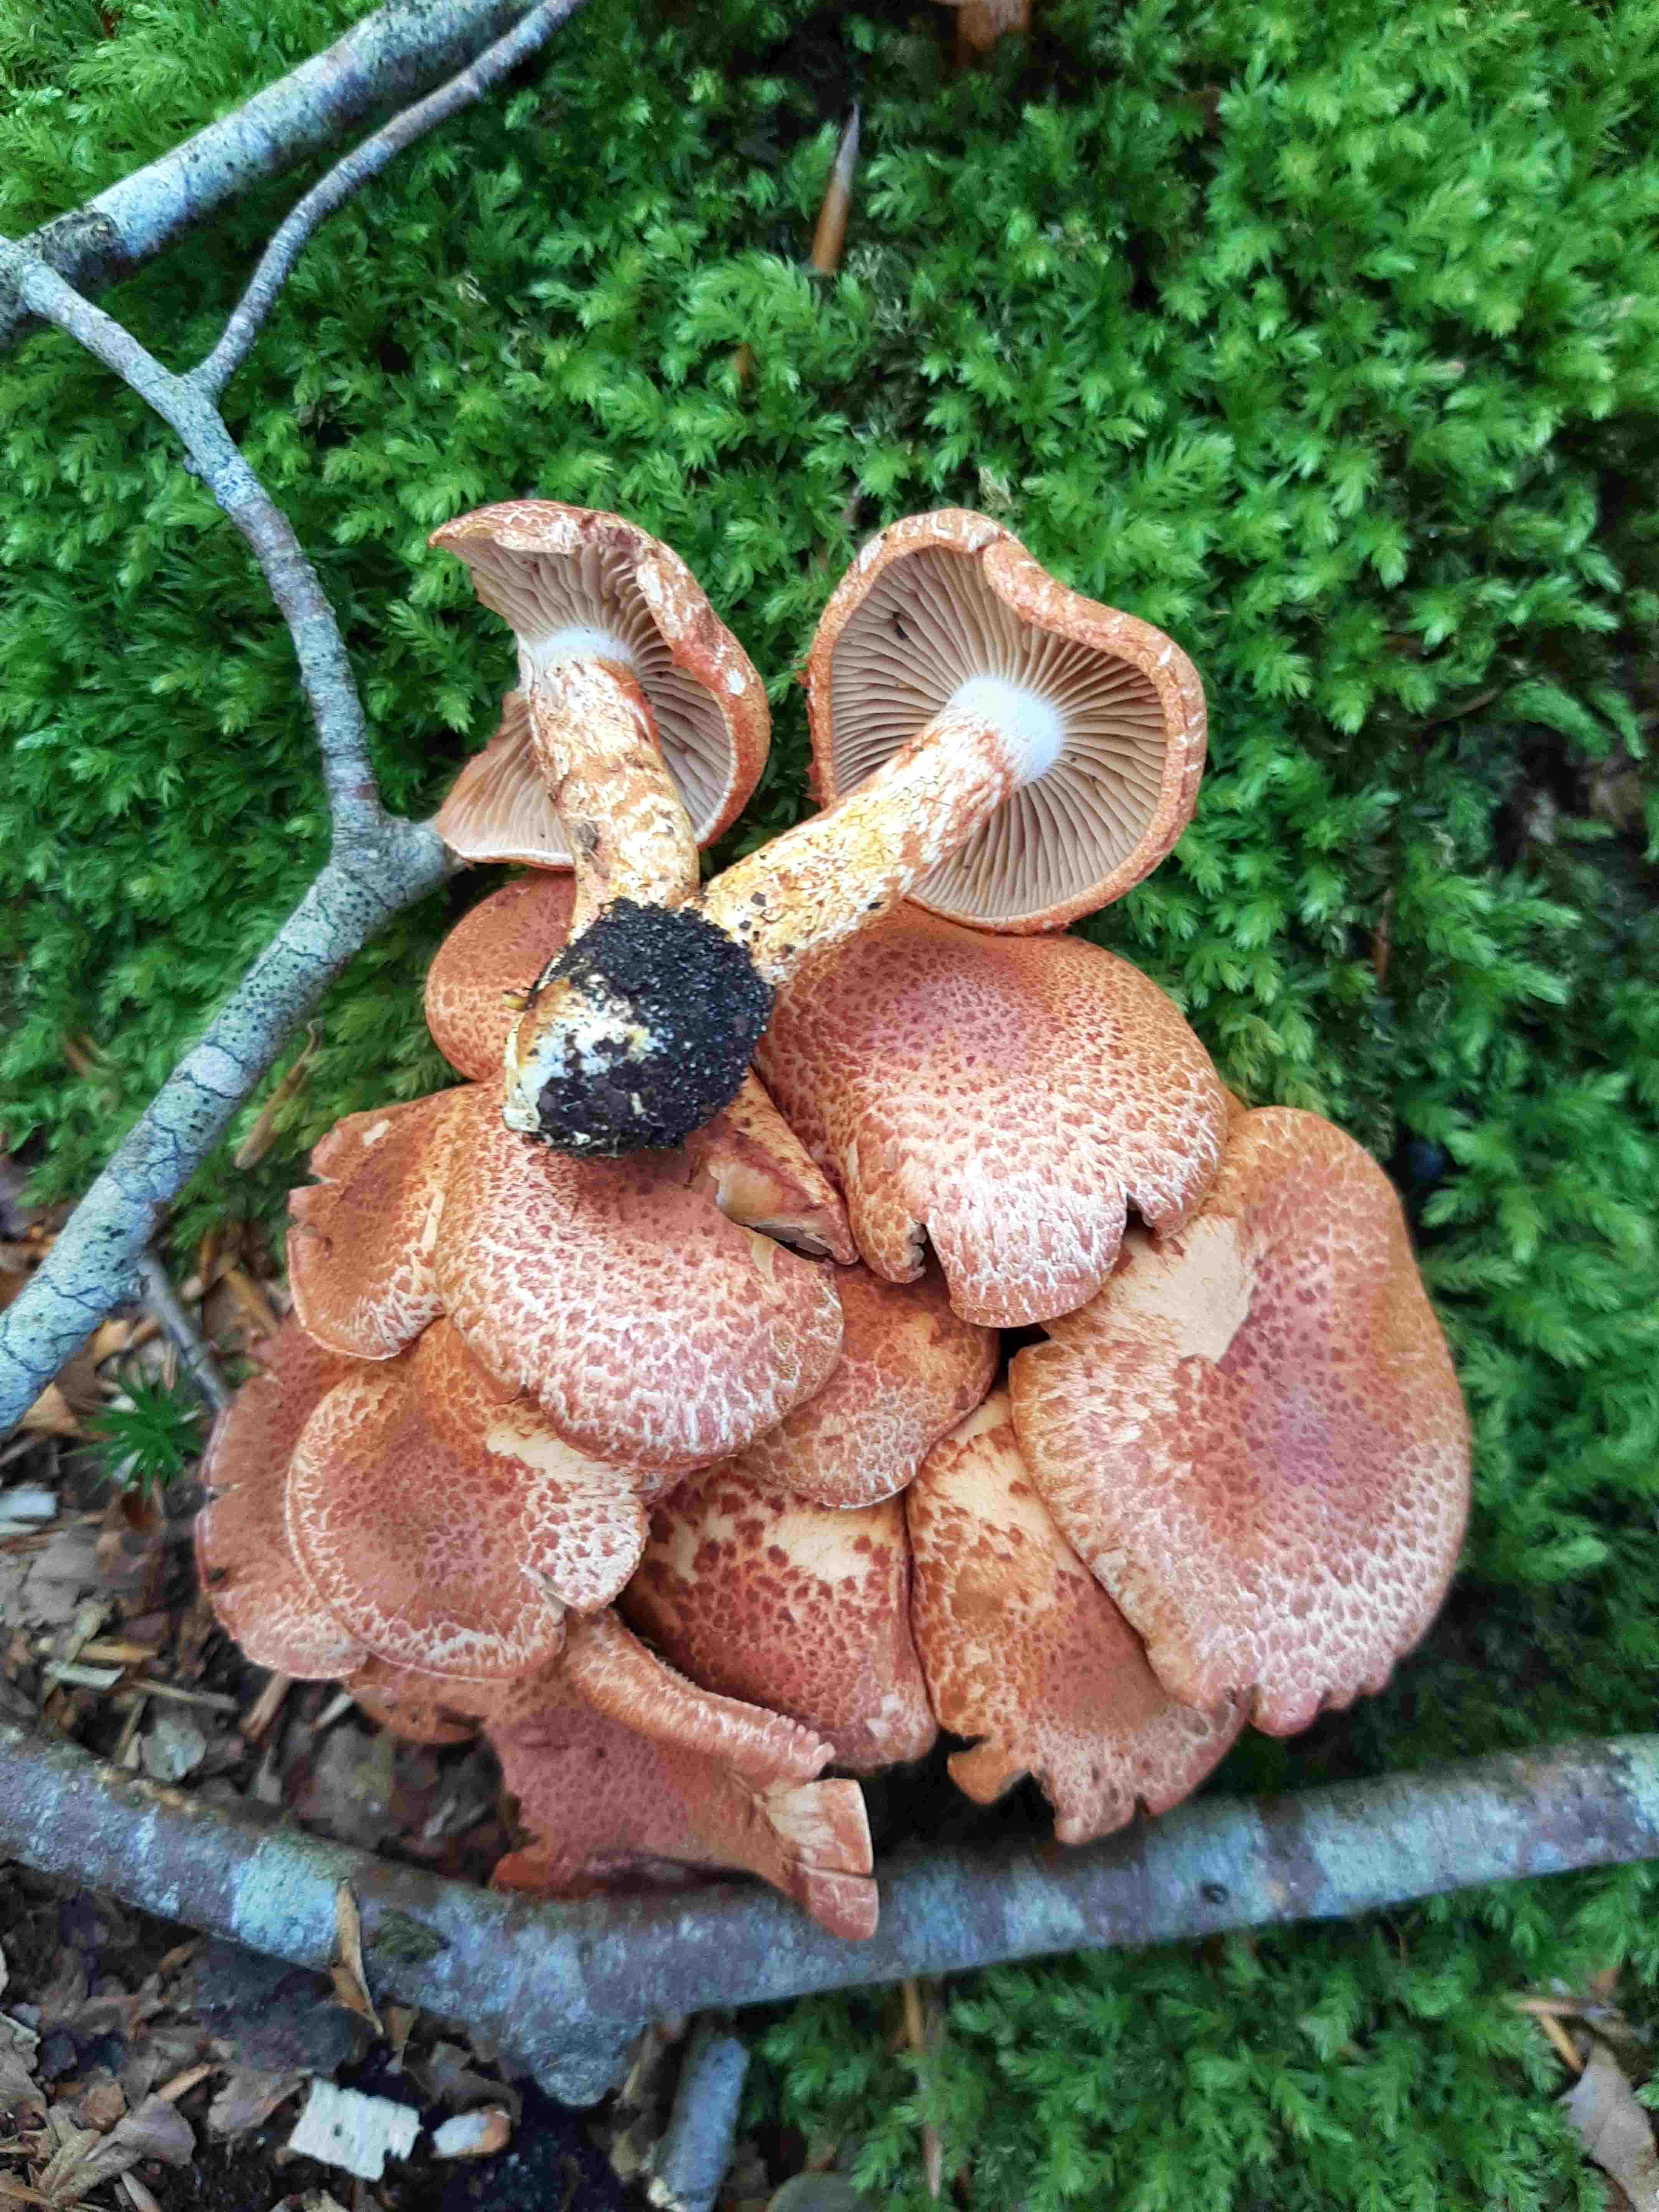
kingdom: Fungi
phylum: Basidiomycota
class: Agaricomycetes
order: Agaricales
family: Cortinariaceae
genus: Cortinarius
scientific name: Cortinarius bolaris
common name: cinnoberskællet slørhat
